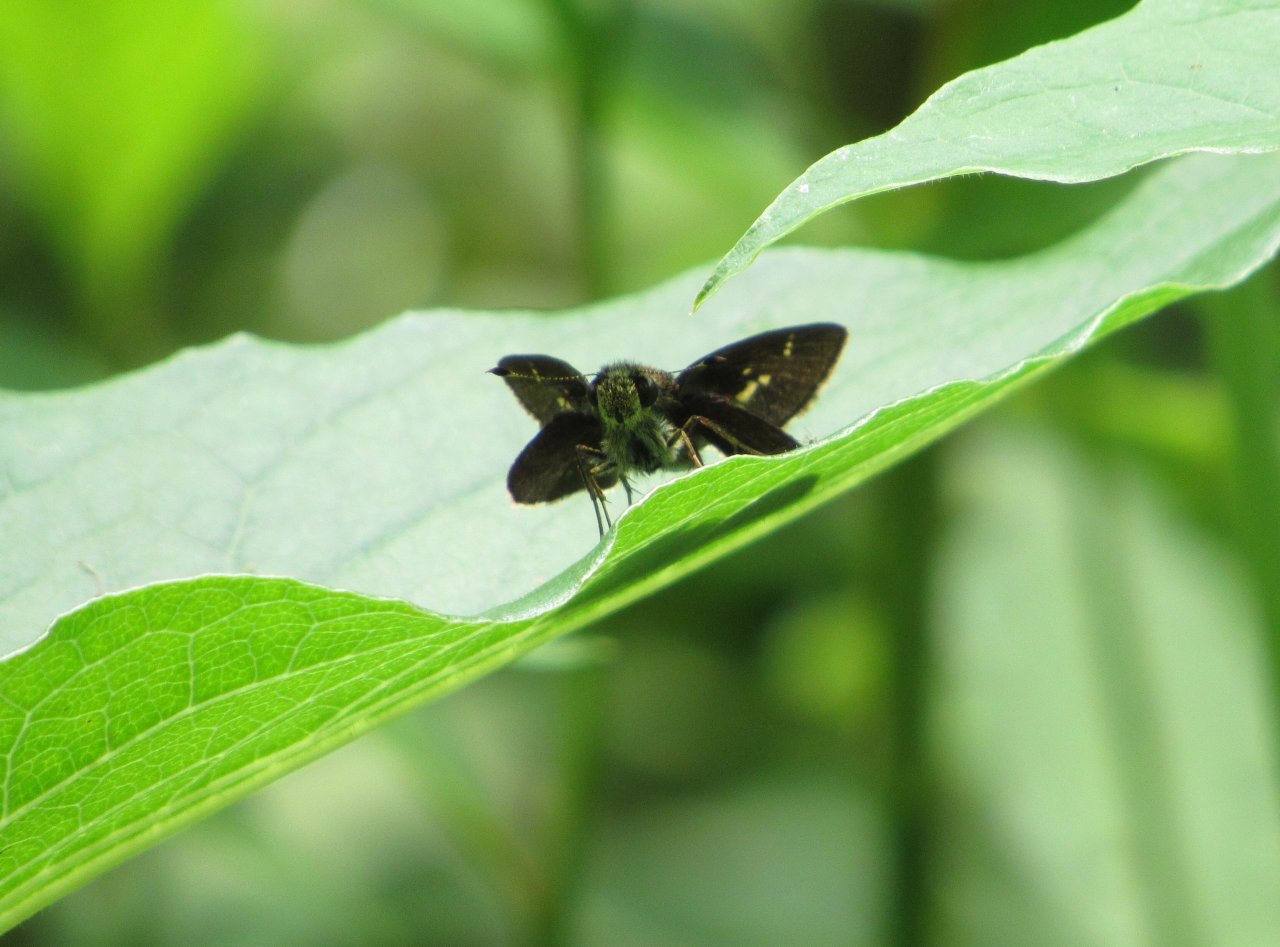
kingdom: Animalia
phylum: Arthropoda
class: Insecta
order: Lepidoptera
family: Hesperiidae
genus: Vernia
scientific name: Vernia verna
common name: Little Glassywing
